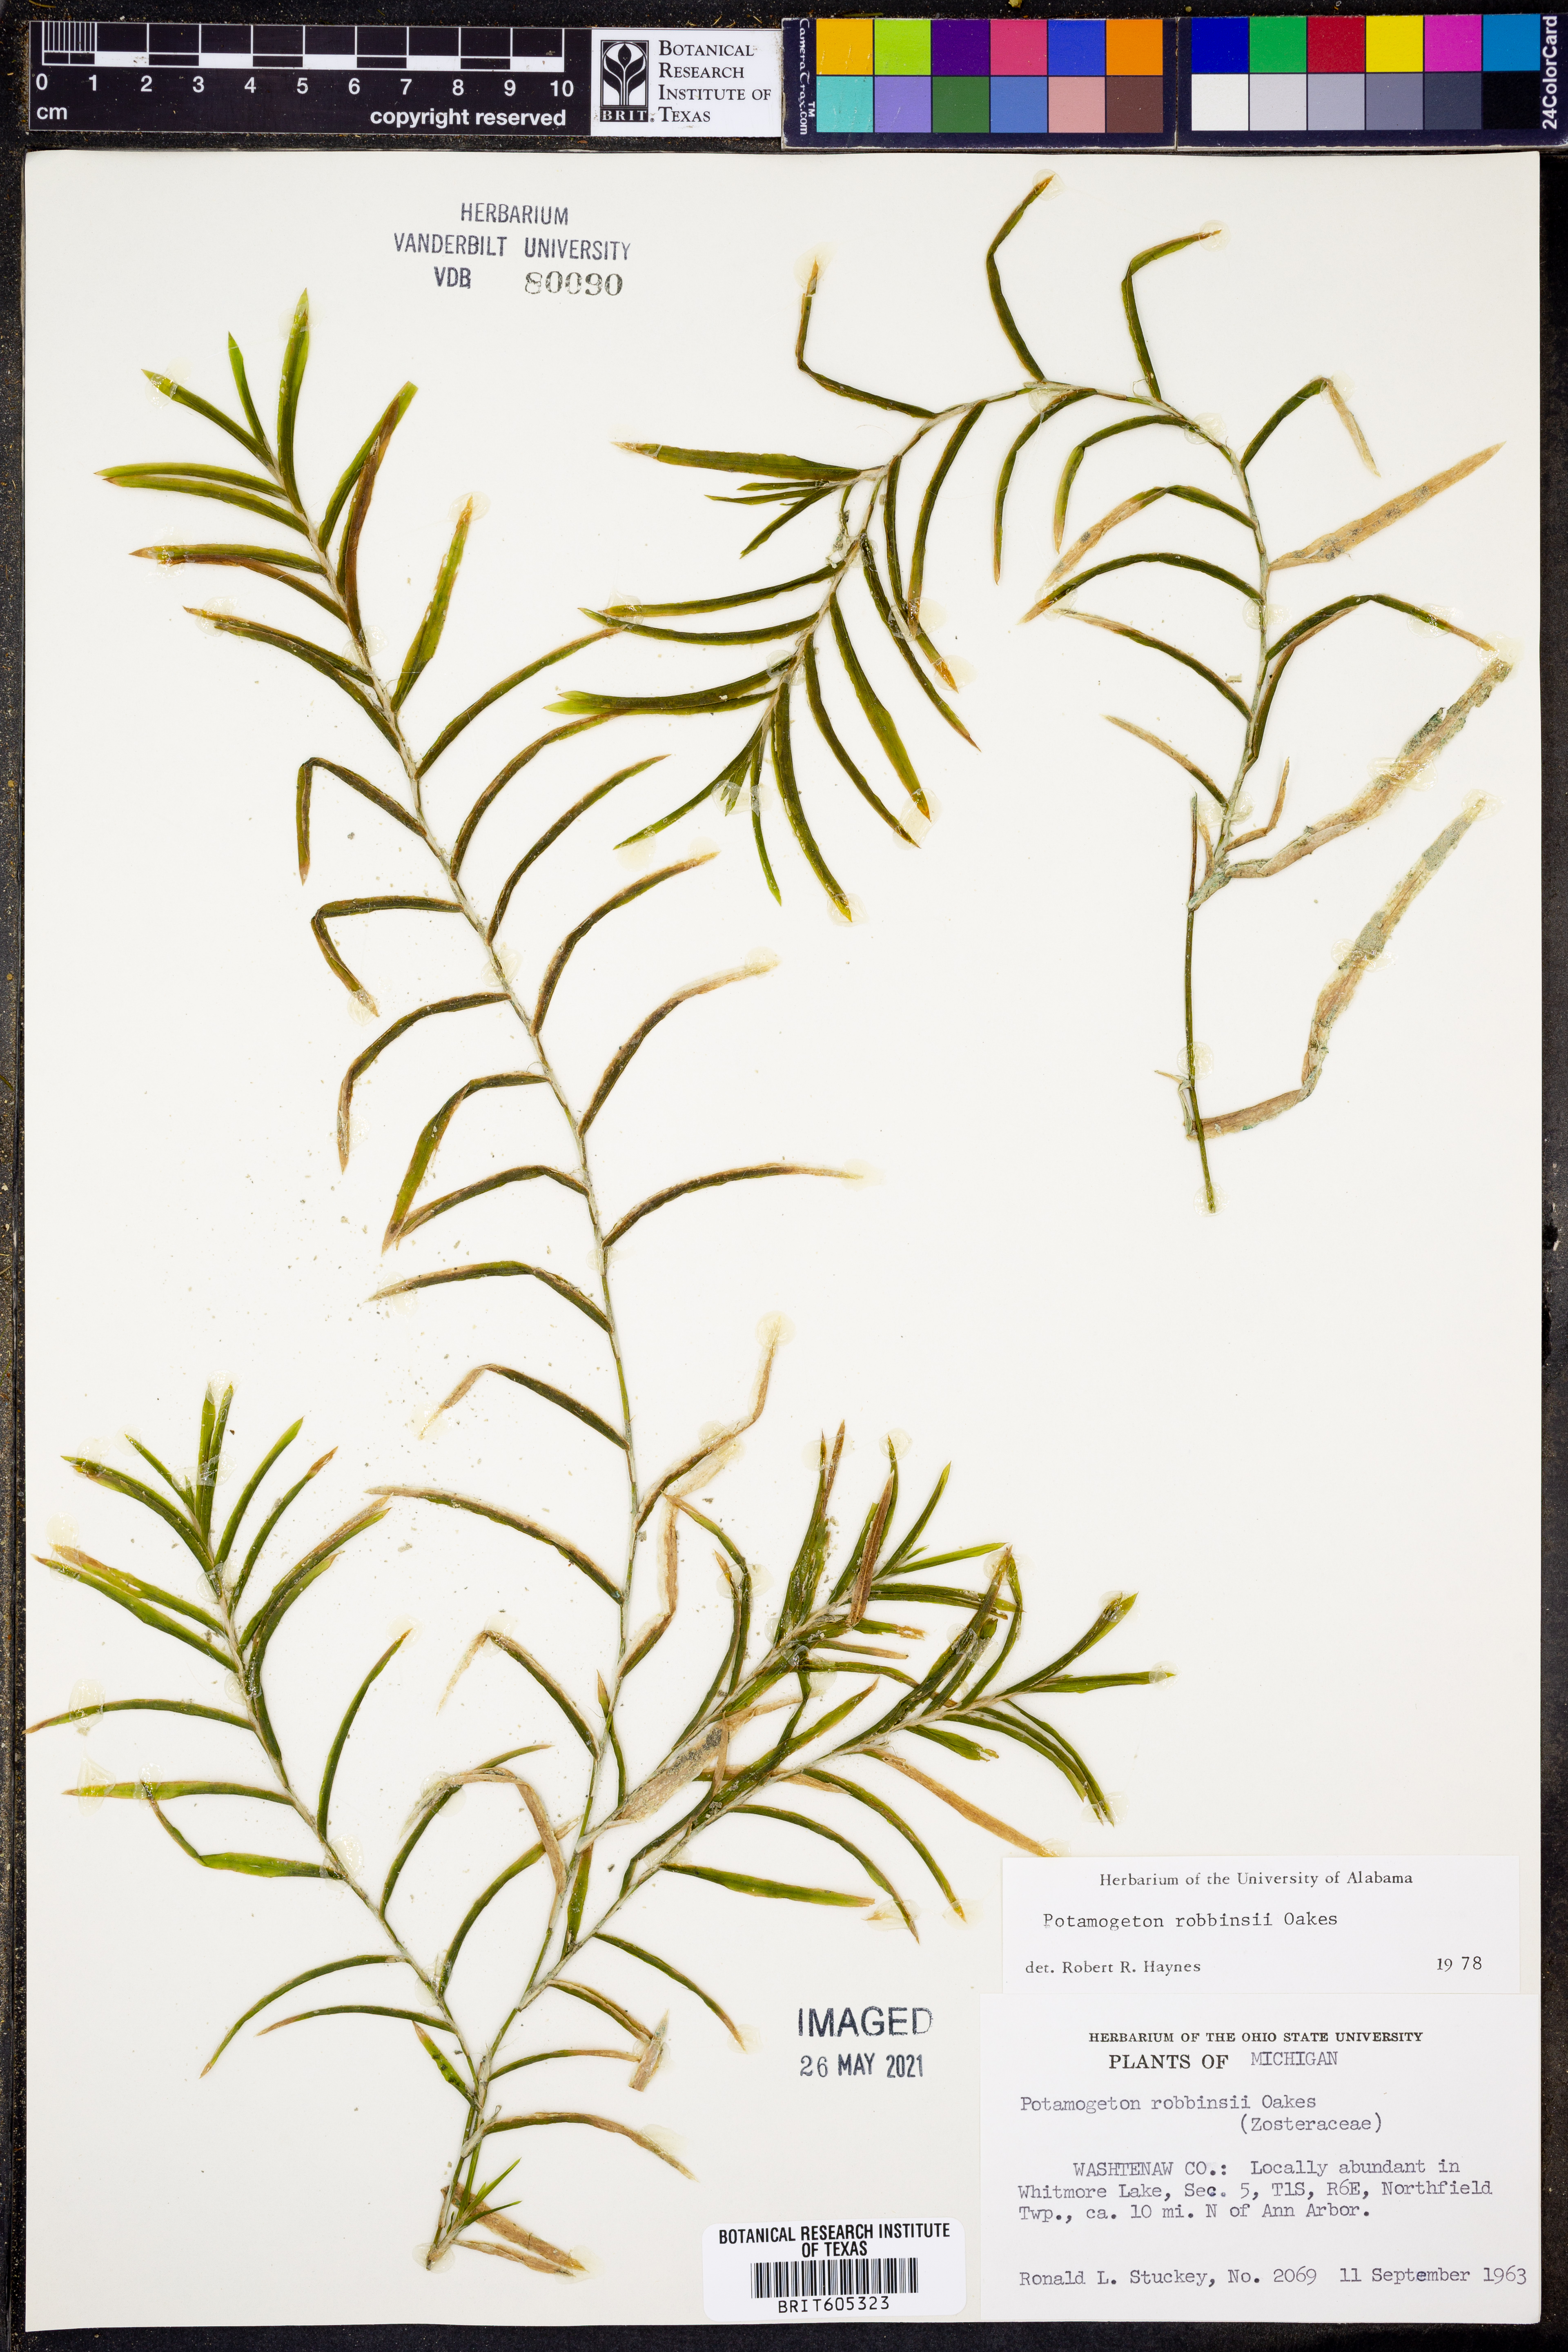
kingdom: Plantae
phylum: Tracheophyta
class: Liliopsida
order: Alismatales
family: Potamogetonaceae
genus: Potamogeton
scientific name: Potamogeton robbinsii
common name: Fern pondweed
